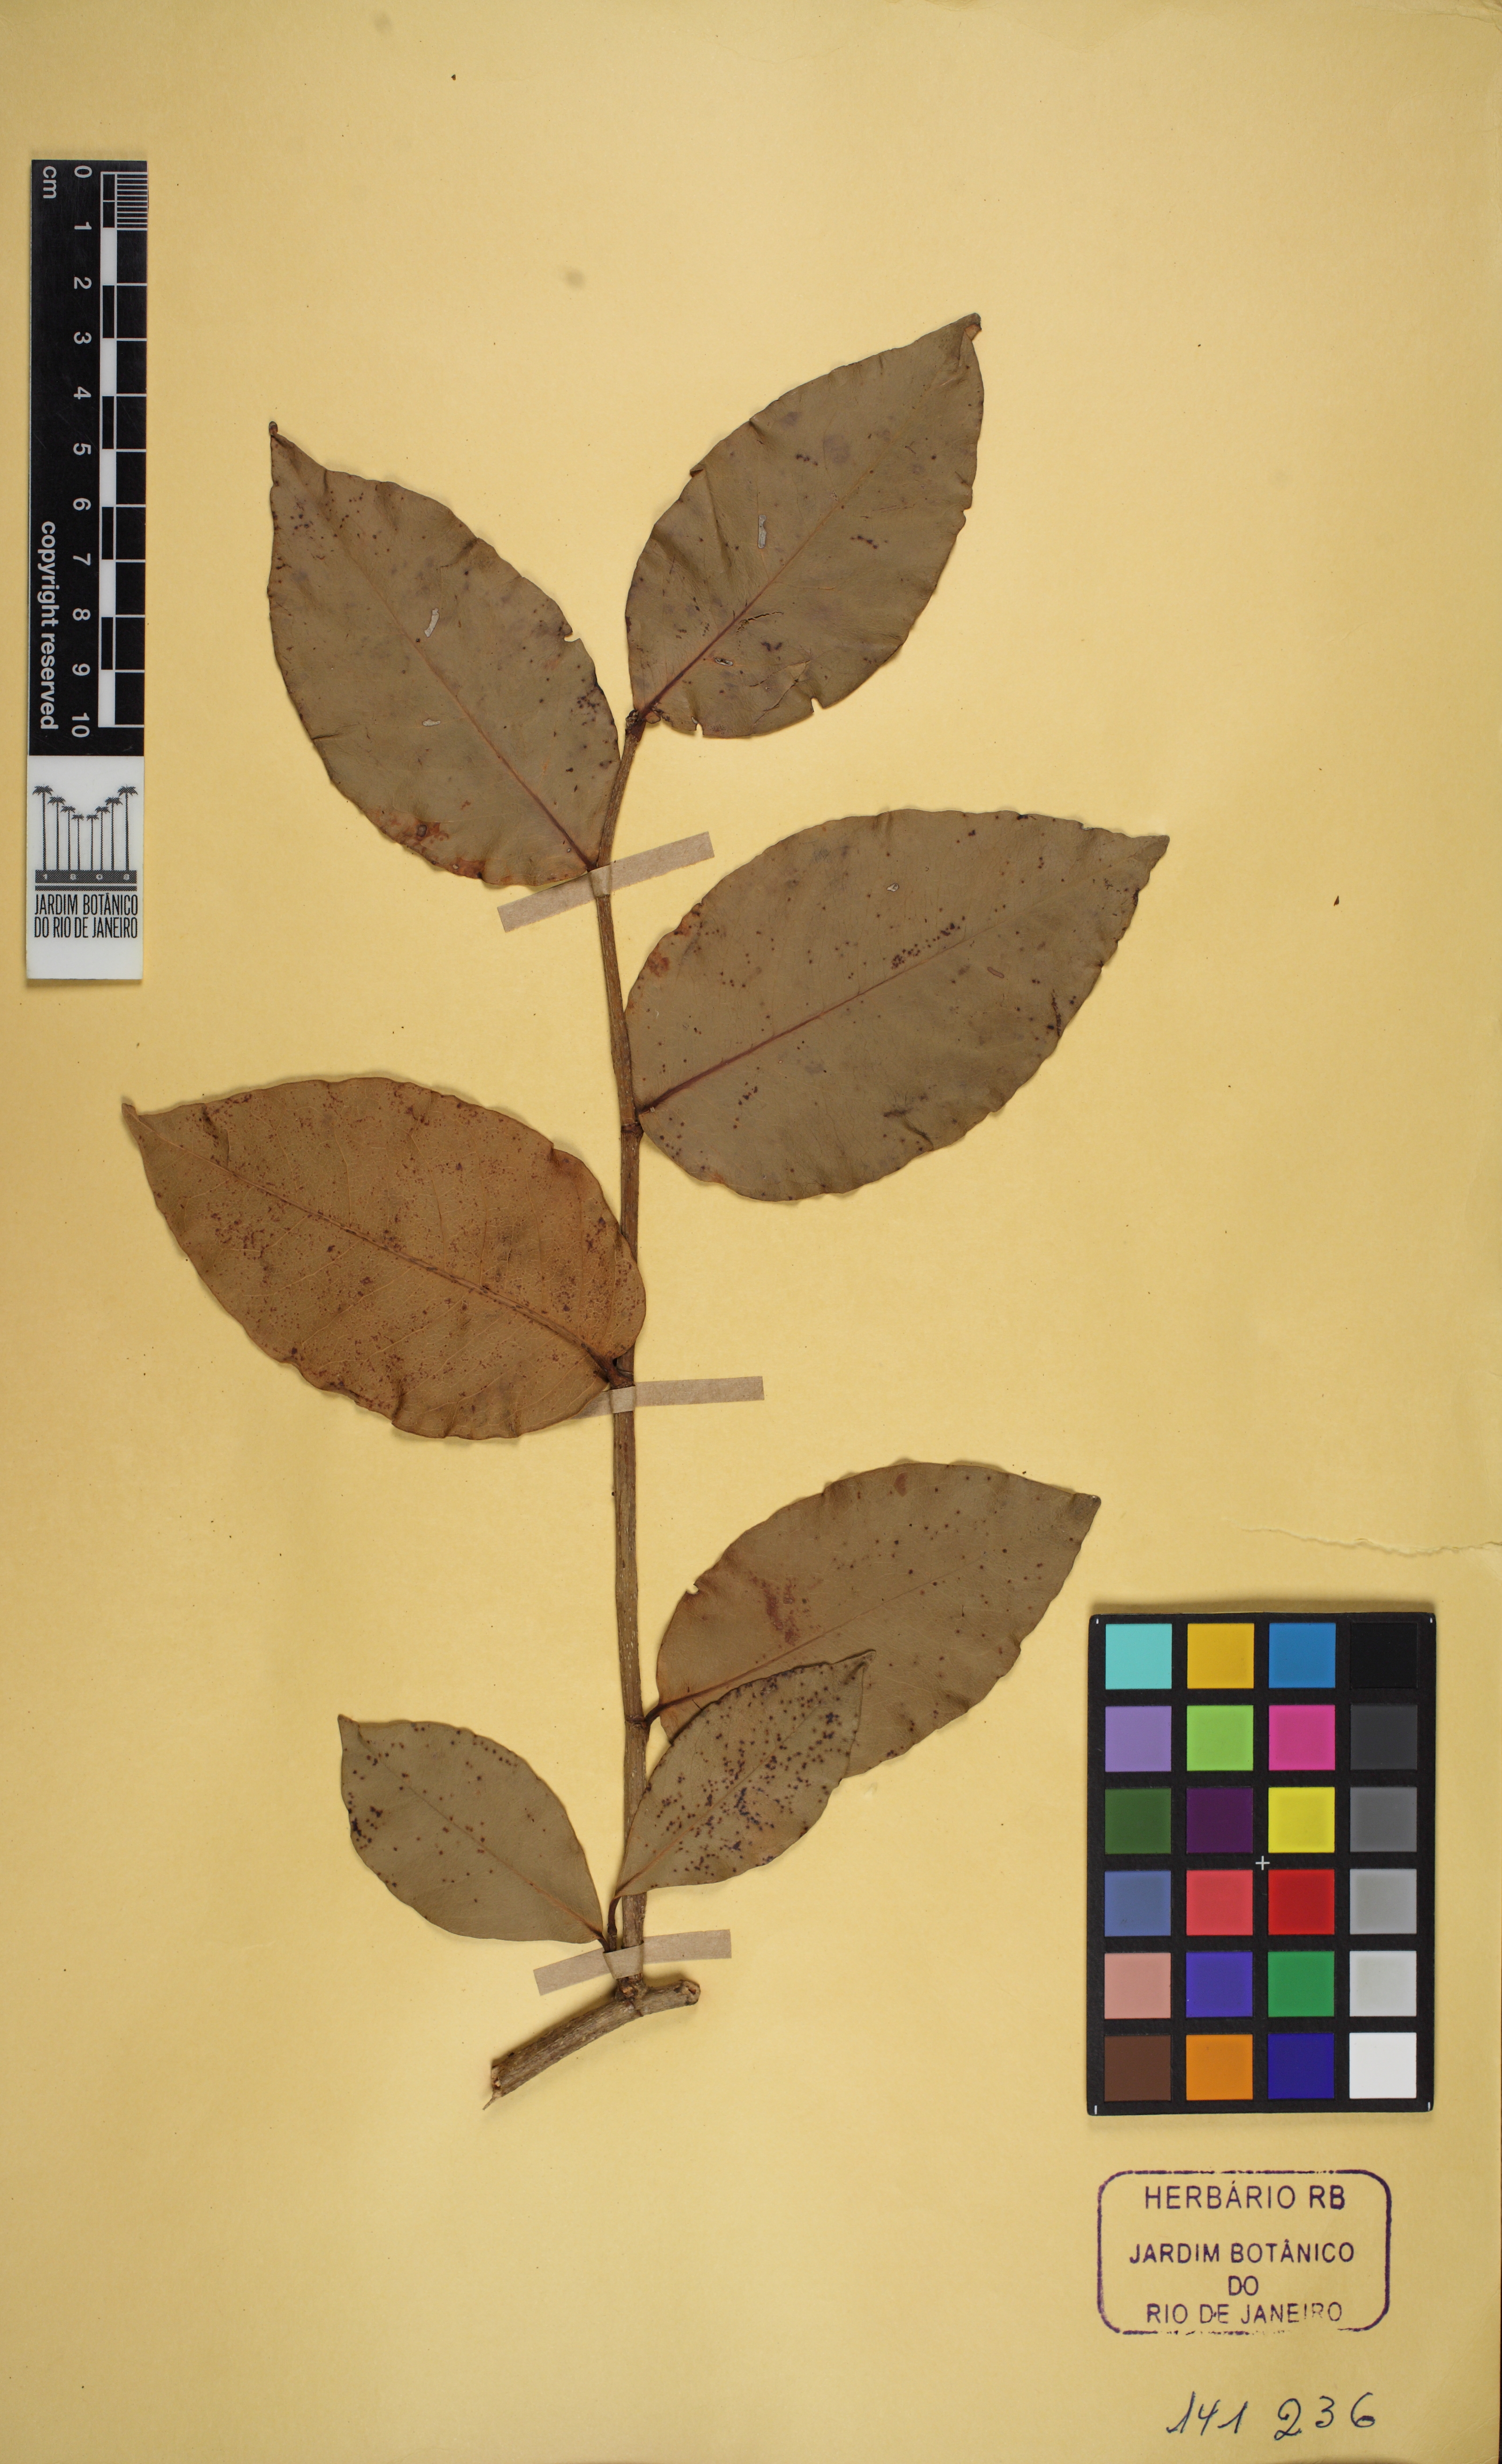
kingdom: Plantae
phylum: Tracheophyta
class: Magnoliopsida
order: Caryophyllales
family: Polygonaceae
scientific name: Polygonaceae
